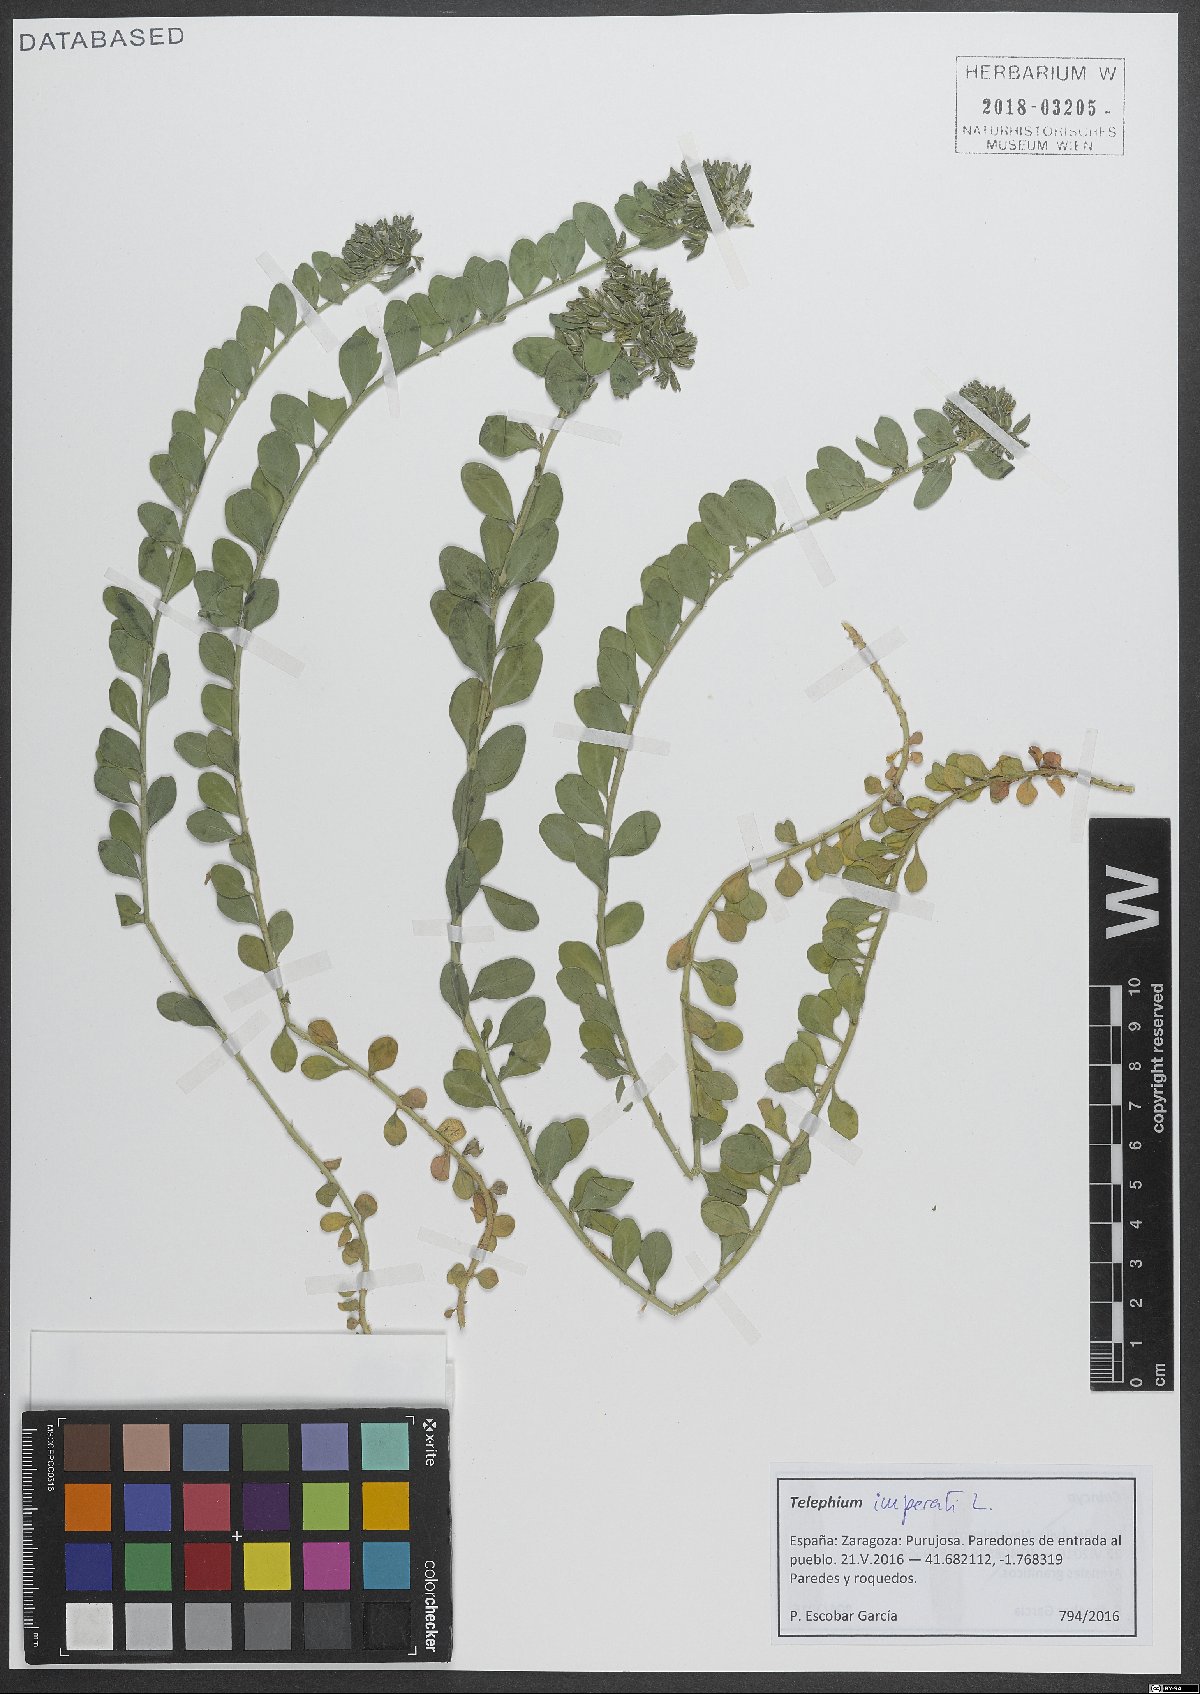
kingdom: Plantae
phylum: Tracheophyta
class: Magnoliopsida
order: Caryophyllales
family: Caryophyllaceae
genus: Telephium
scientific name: Telephium imperati
